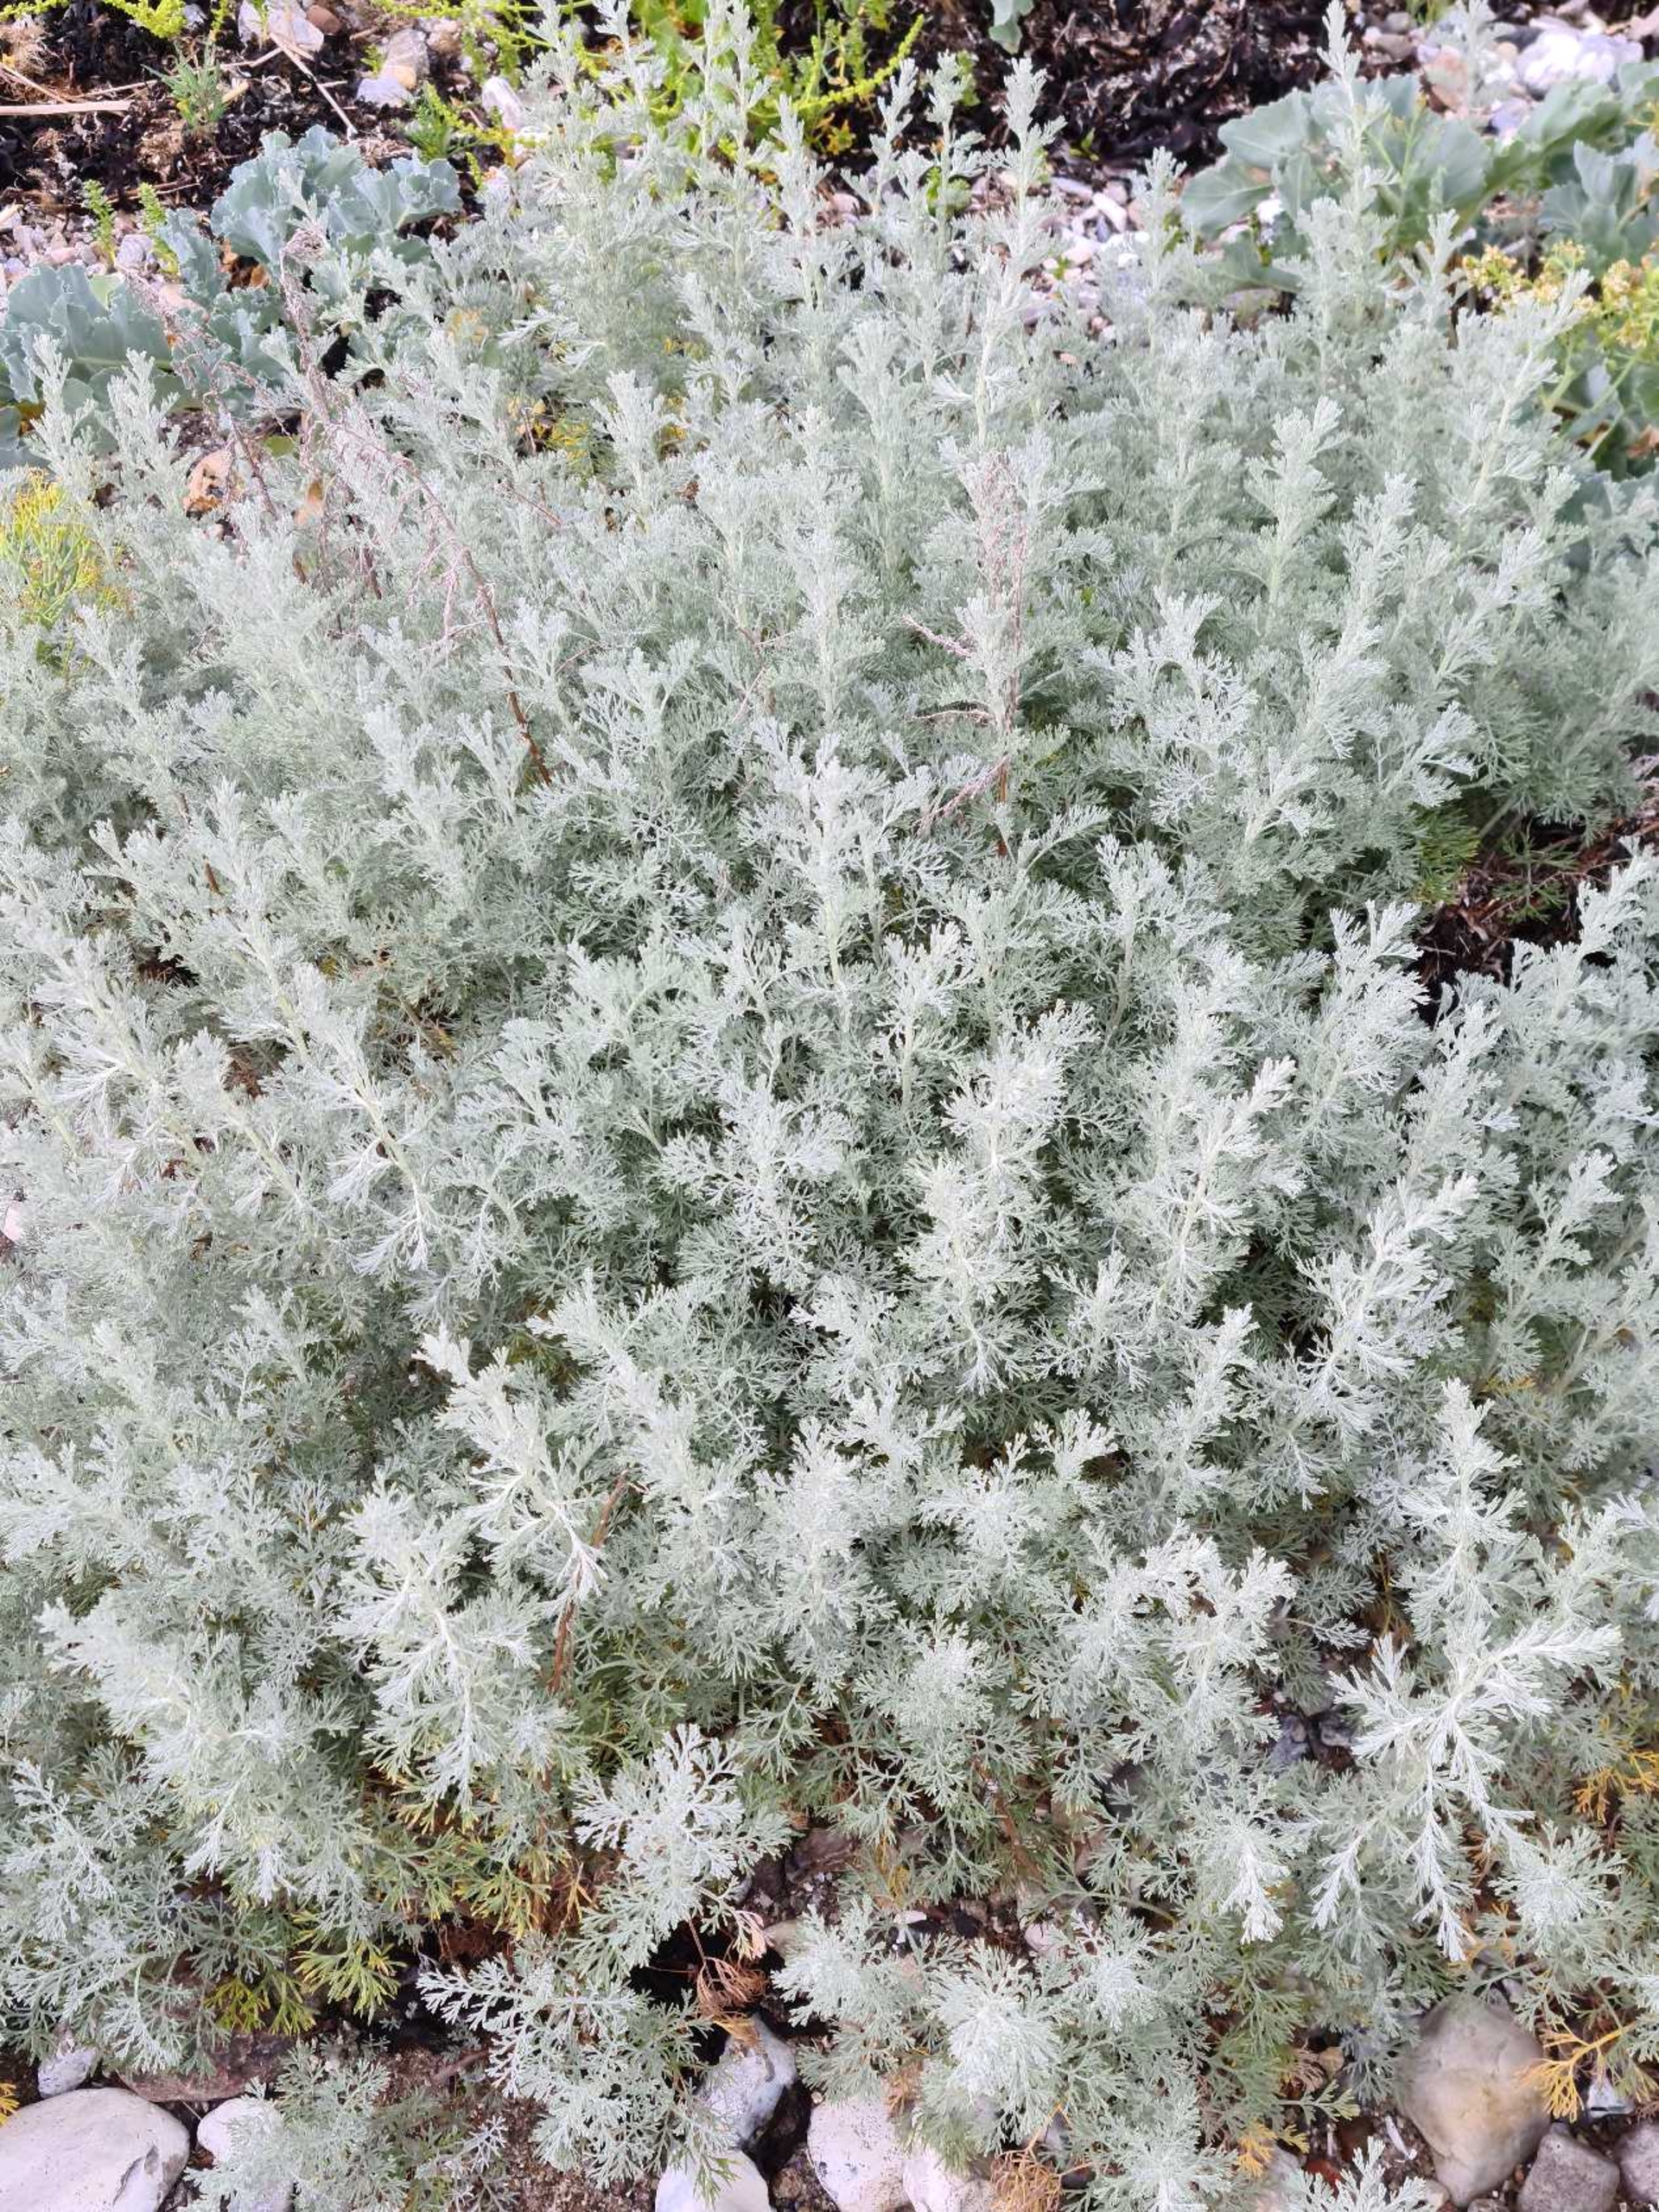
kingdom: Plantae
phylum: Tracheophyta
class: Magnoliopsida
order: Asterales
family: Asteraceae
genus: Artemisia
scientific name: Artemisia maritima
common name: Strandmalurt
